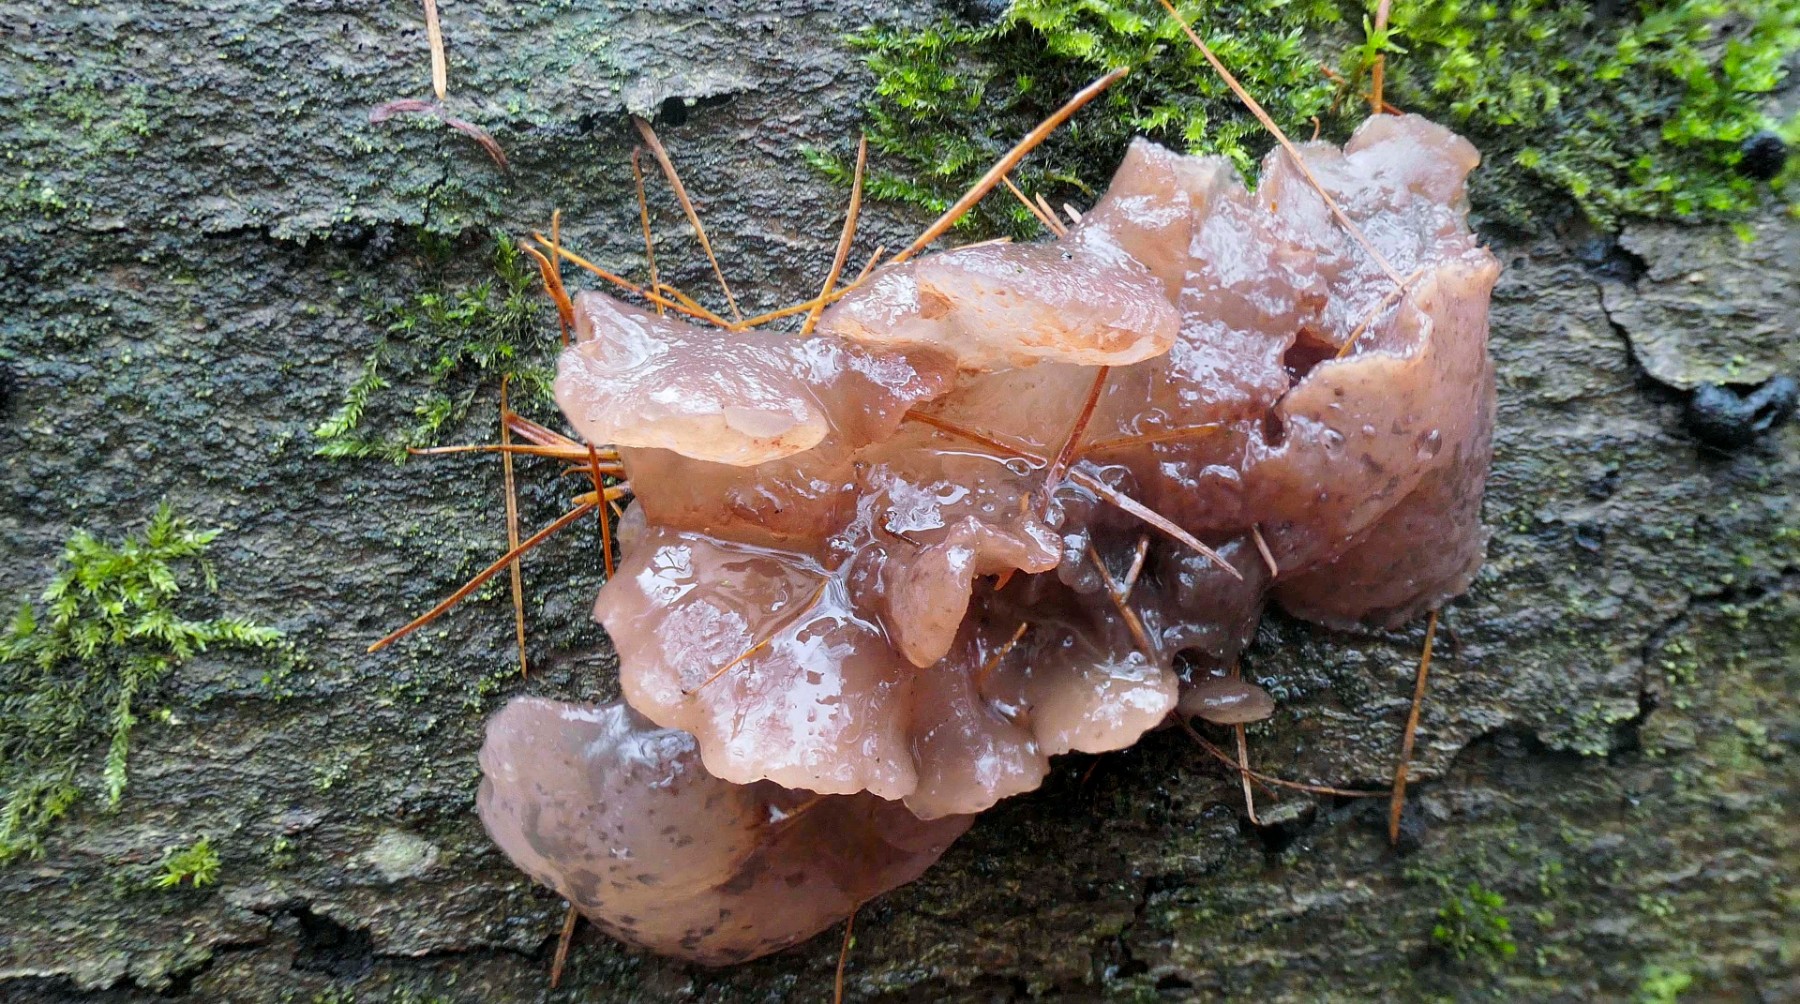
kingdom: Fungi
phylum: Ascomycota
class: Leotiomycetes
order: Helotiales
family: Gelatinodiscaceae
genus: Neobulgaria
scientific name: Neobulgaria pura
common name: bleg bævreskive
